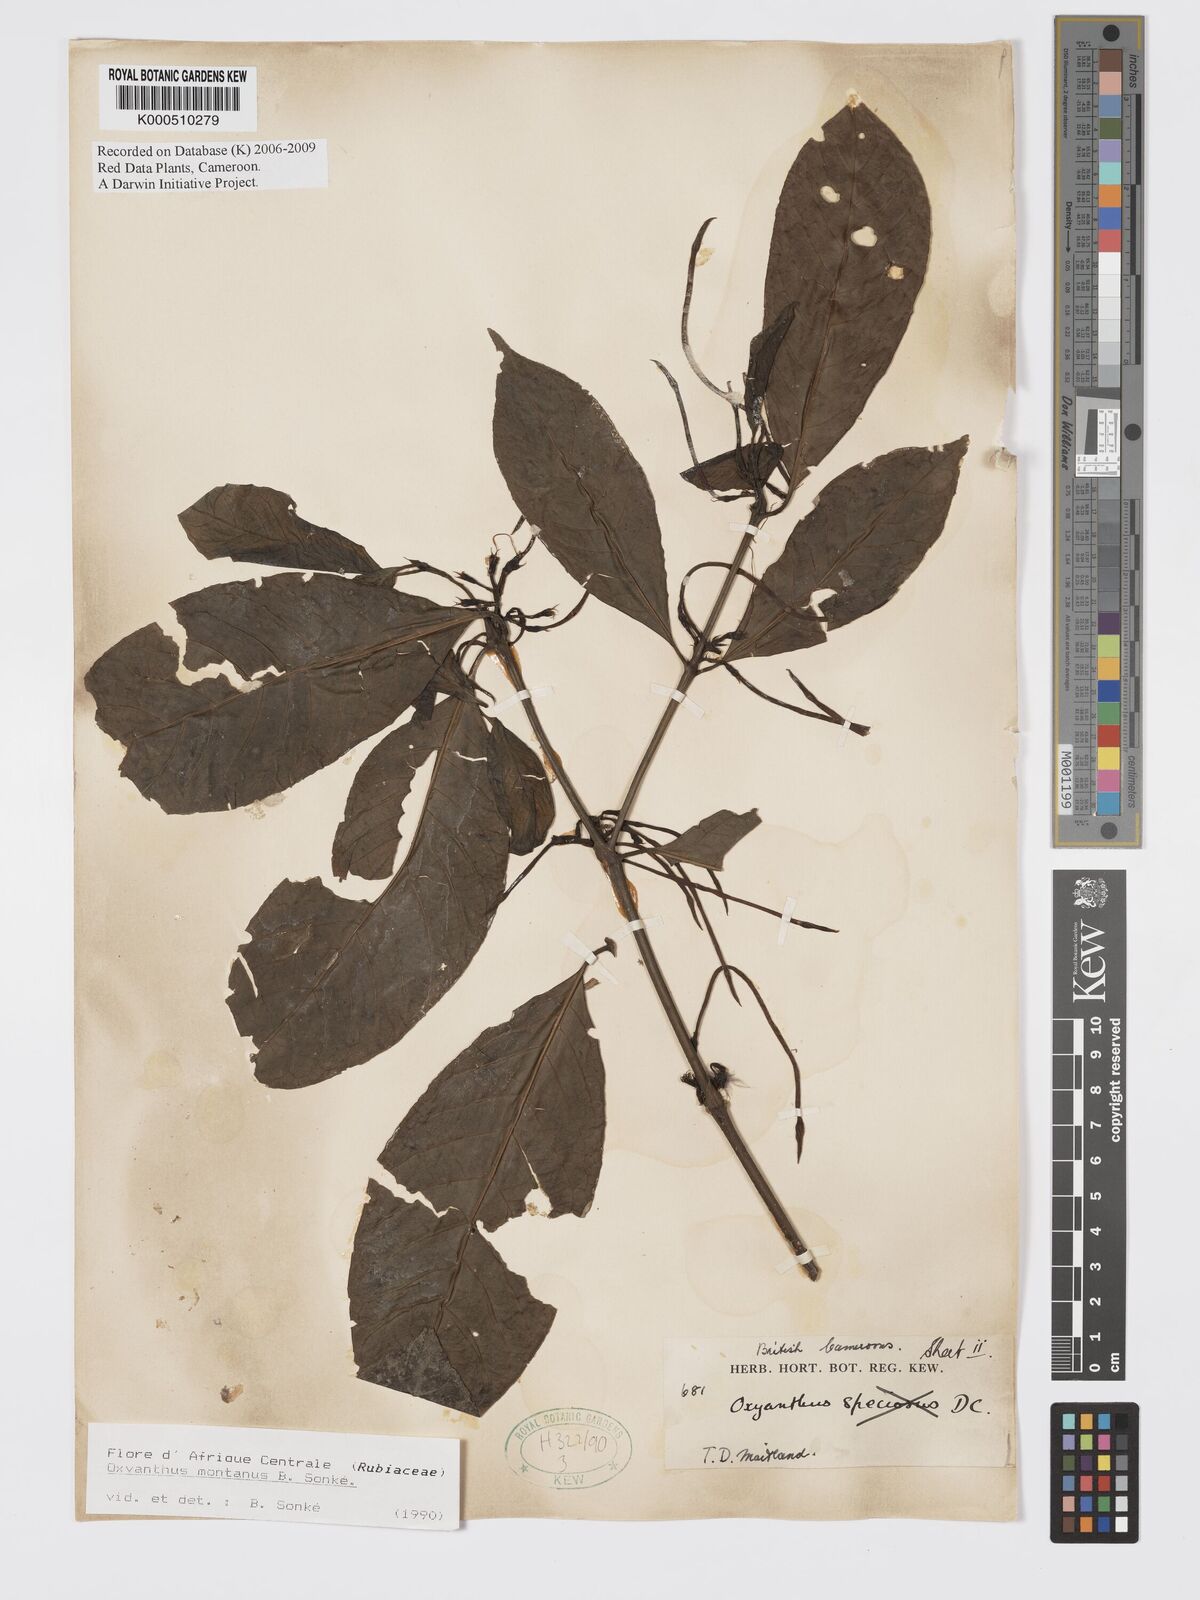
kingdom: Plantae
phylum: Tracheophyta
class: Magnoliopsida
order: Gentianales
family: Rubiaceae
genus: Oxyanthus
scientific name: Oxyanthus
